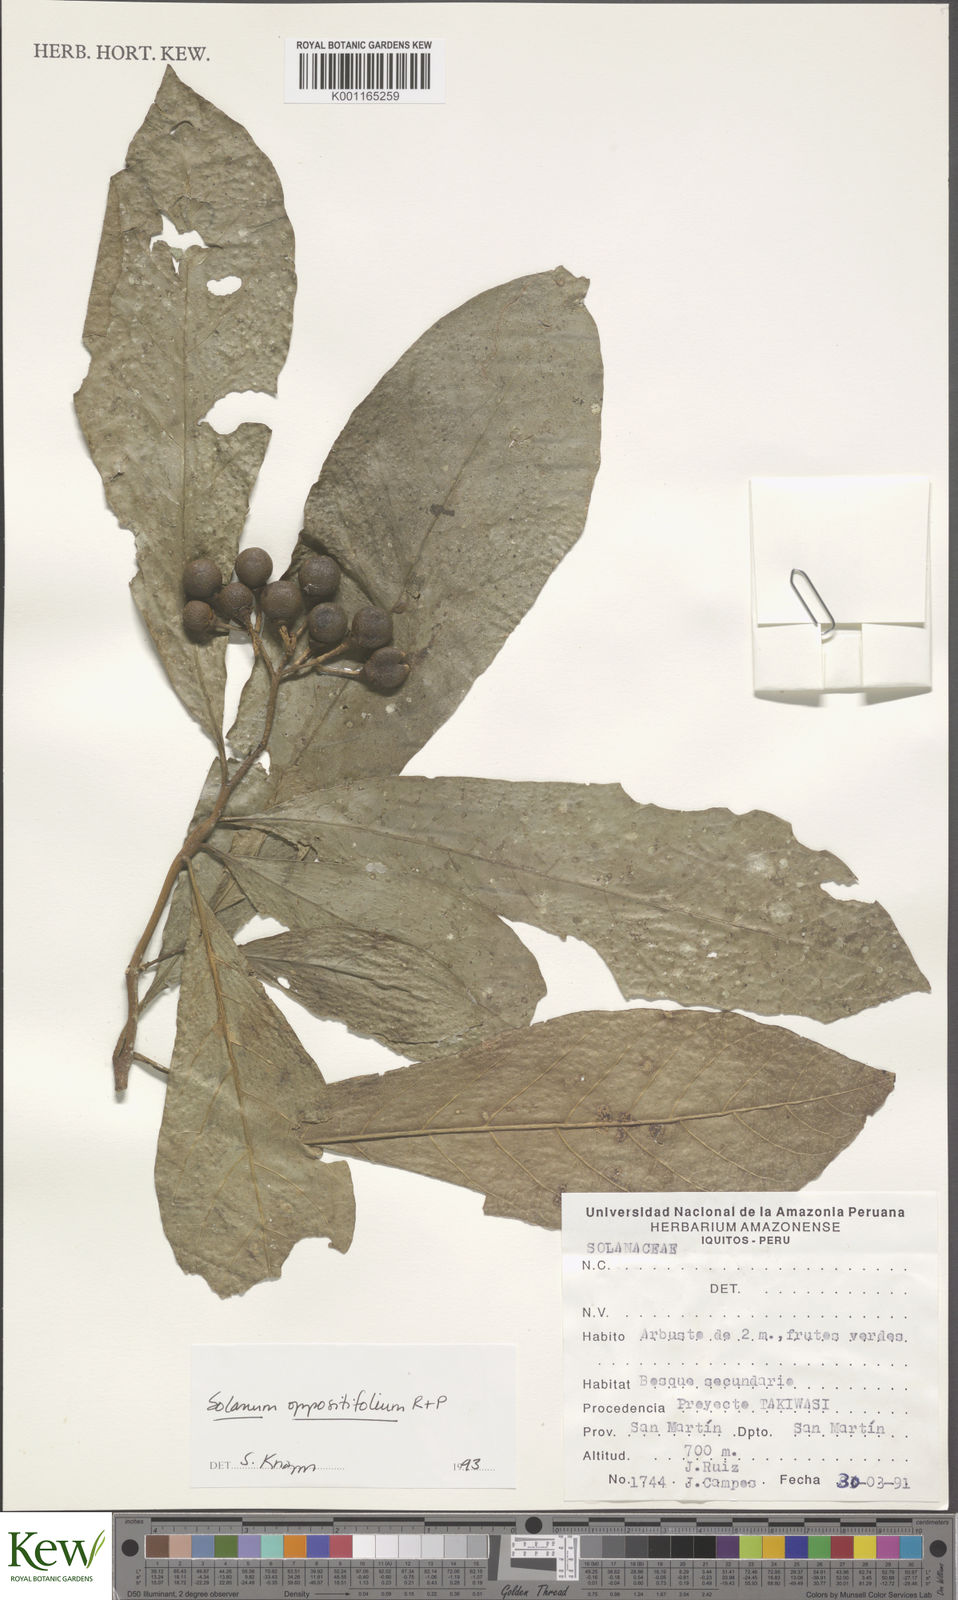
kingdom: Plantae
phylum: Tracheophyta
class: Magnoliopsida
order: Solanales
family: Solanaceae
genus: Solanum
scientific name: Solanum oppositifolium
